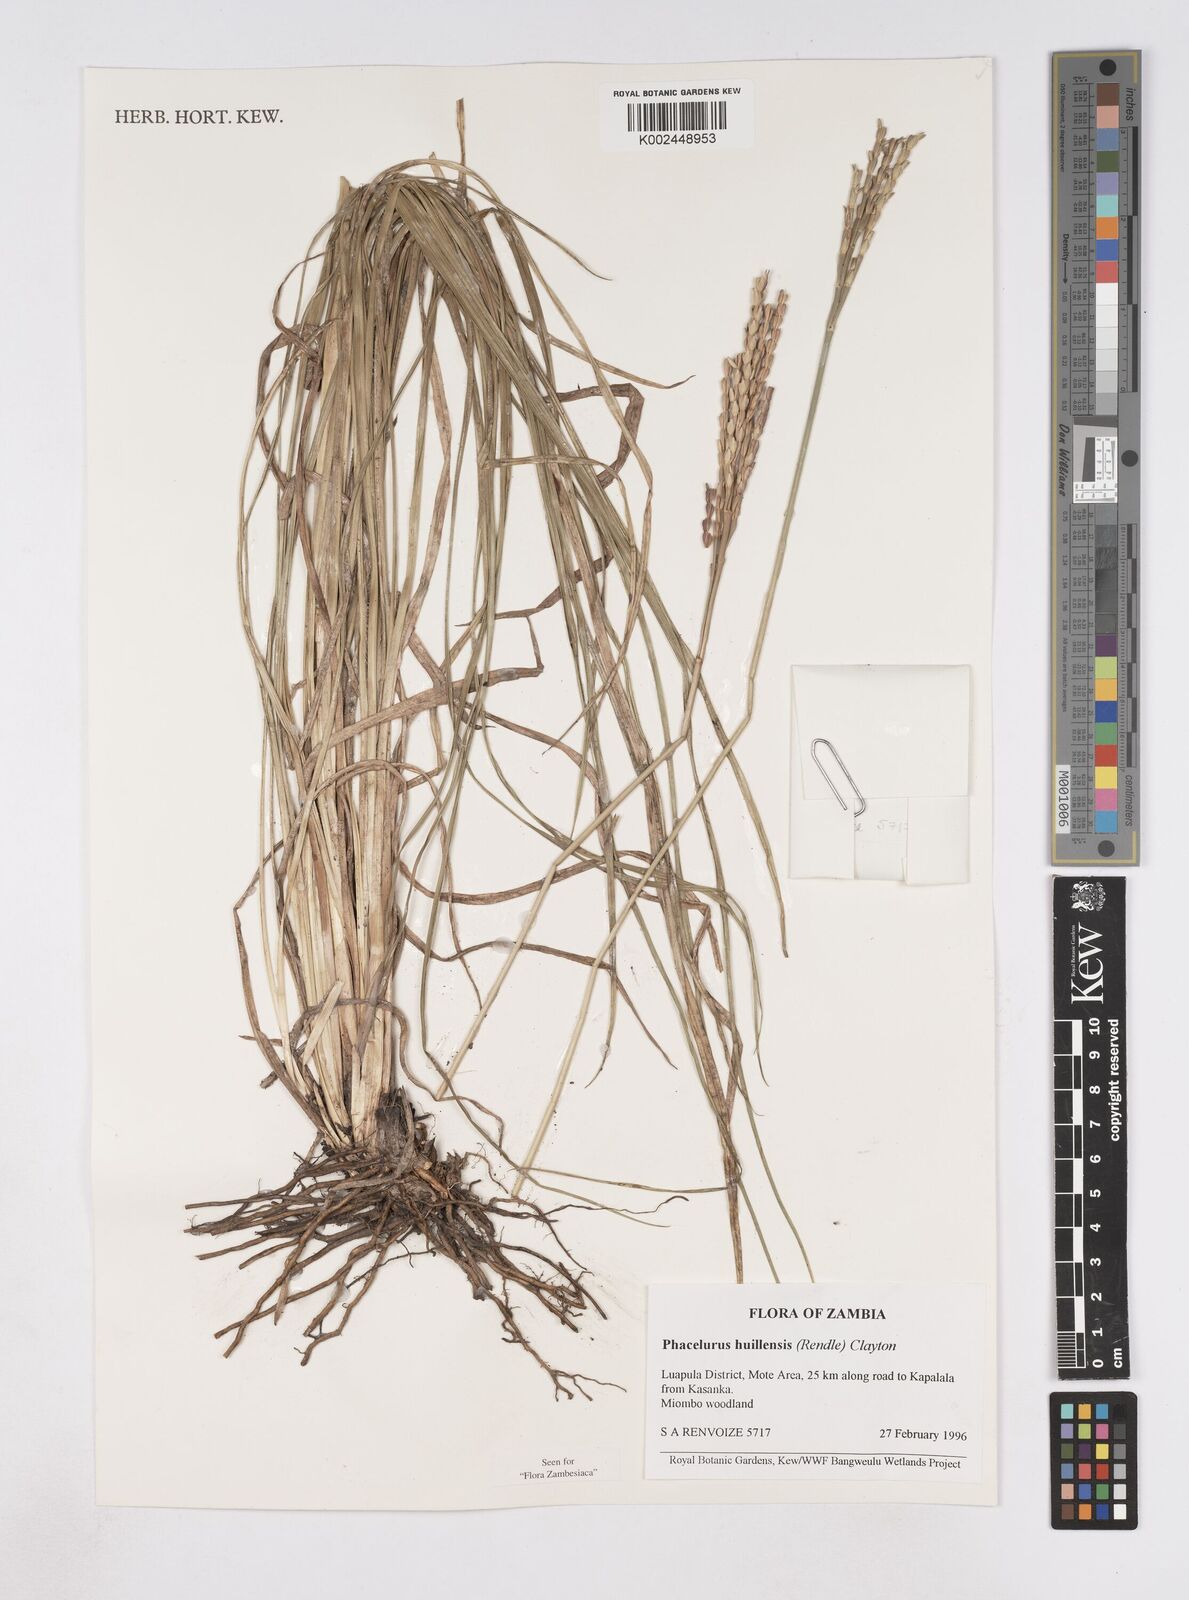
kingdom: Plantae
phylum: Tracheophyta
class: Liliopsida
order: Poales
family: Poaceae
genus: Thyrsia
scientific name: Thyrsia huillensis
